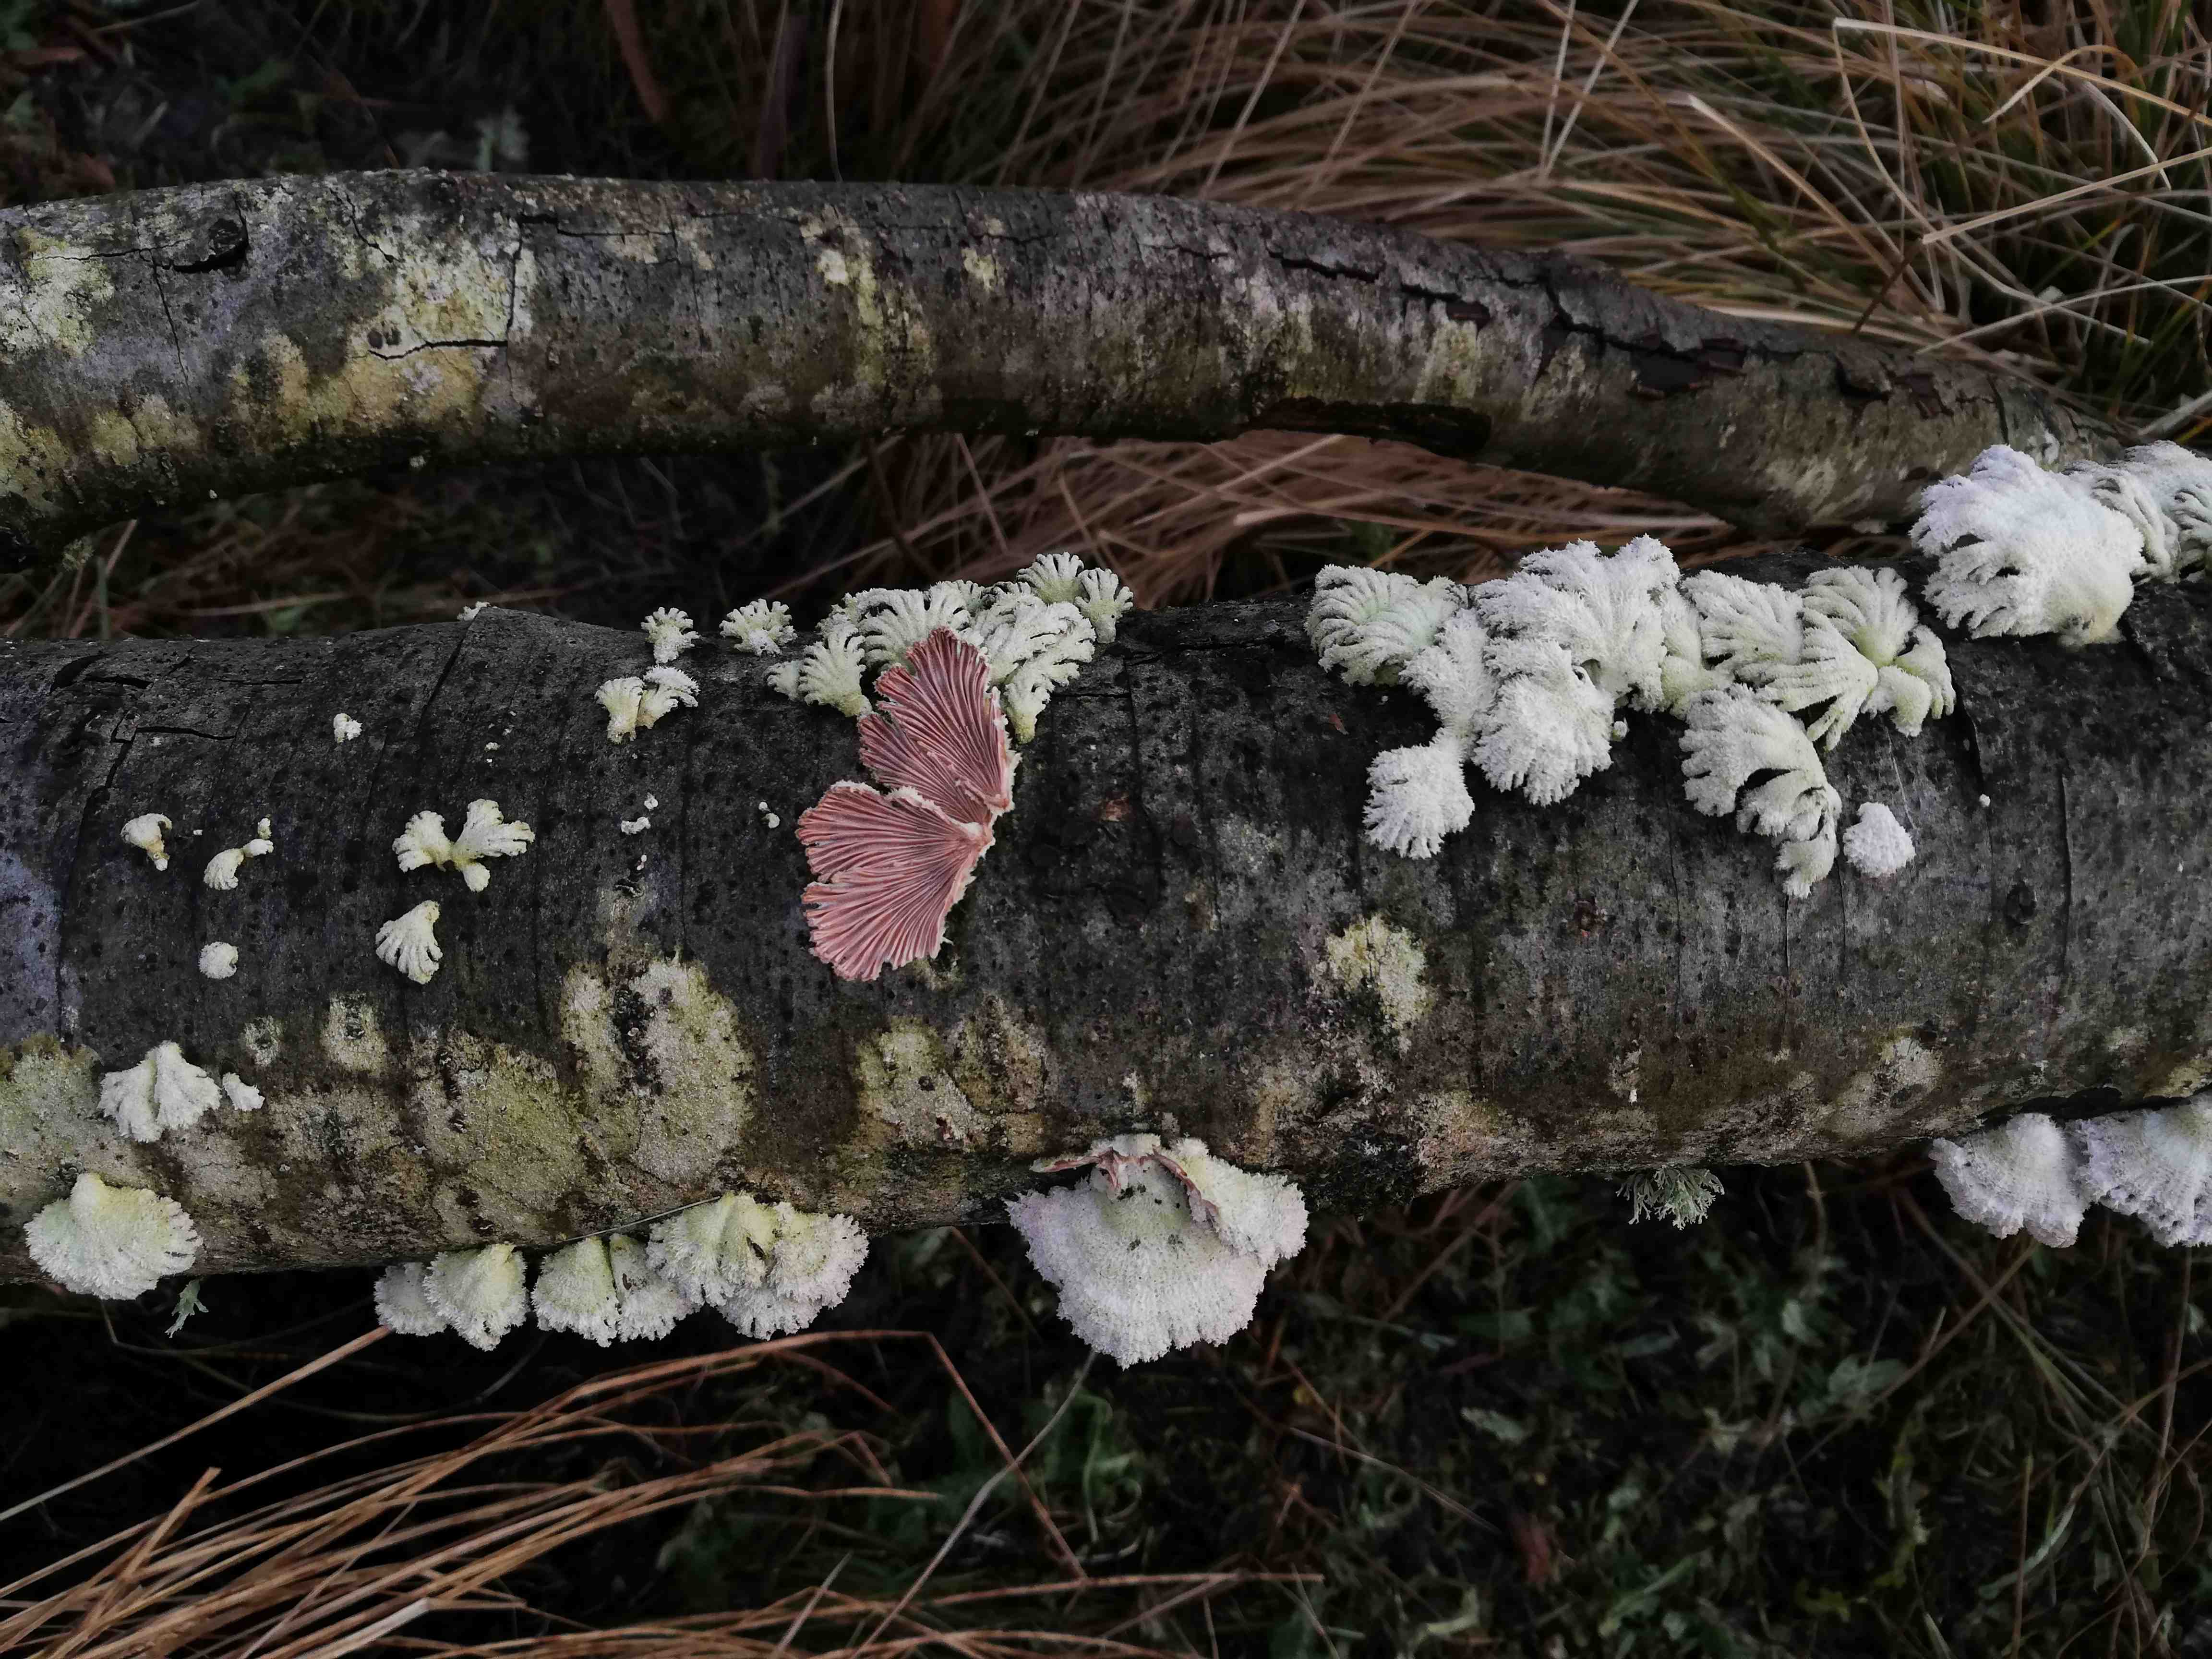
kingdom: Fungi
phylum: Basidiomycota
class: Agaricomycetes
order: Agaricales
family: Schizophyllaceae
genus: Schizophyllum
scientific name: Schizophyllum commune
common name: kløvblad
